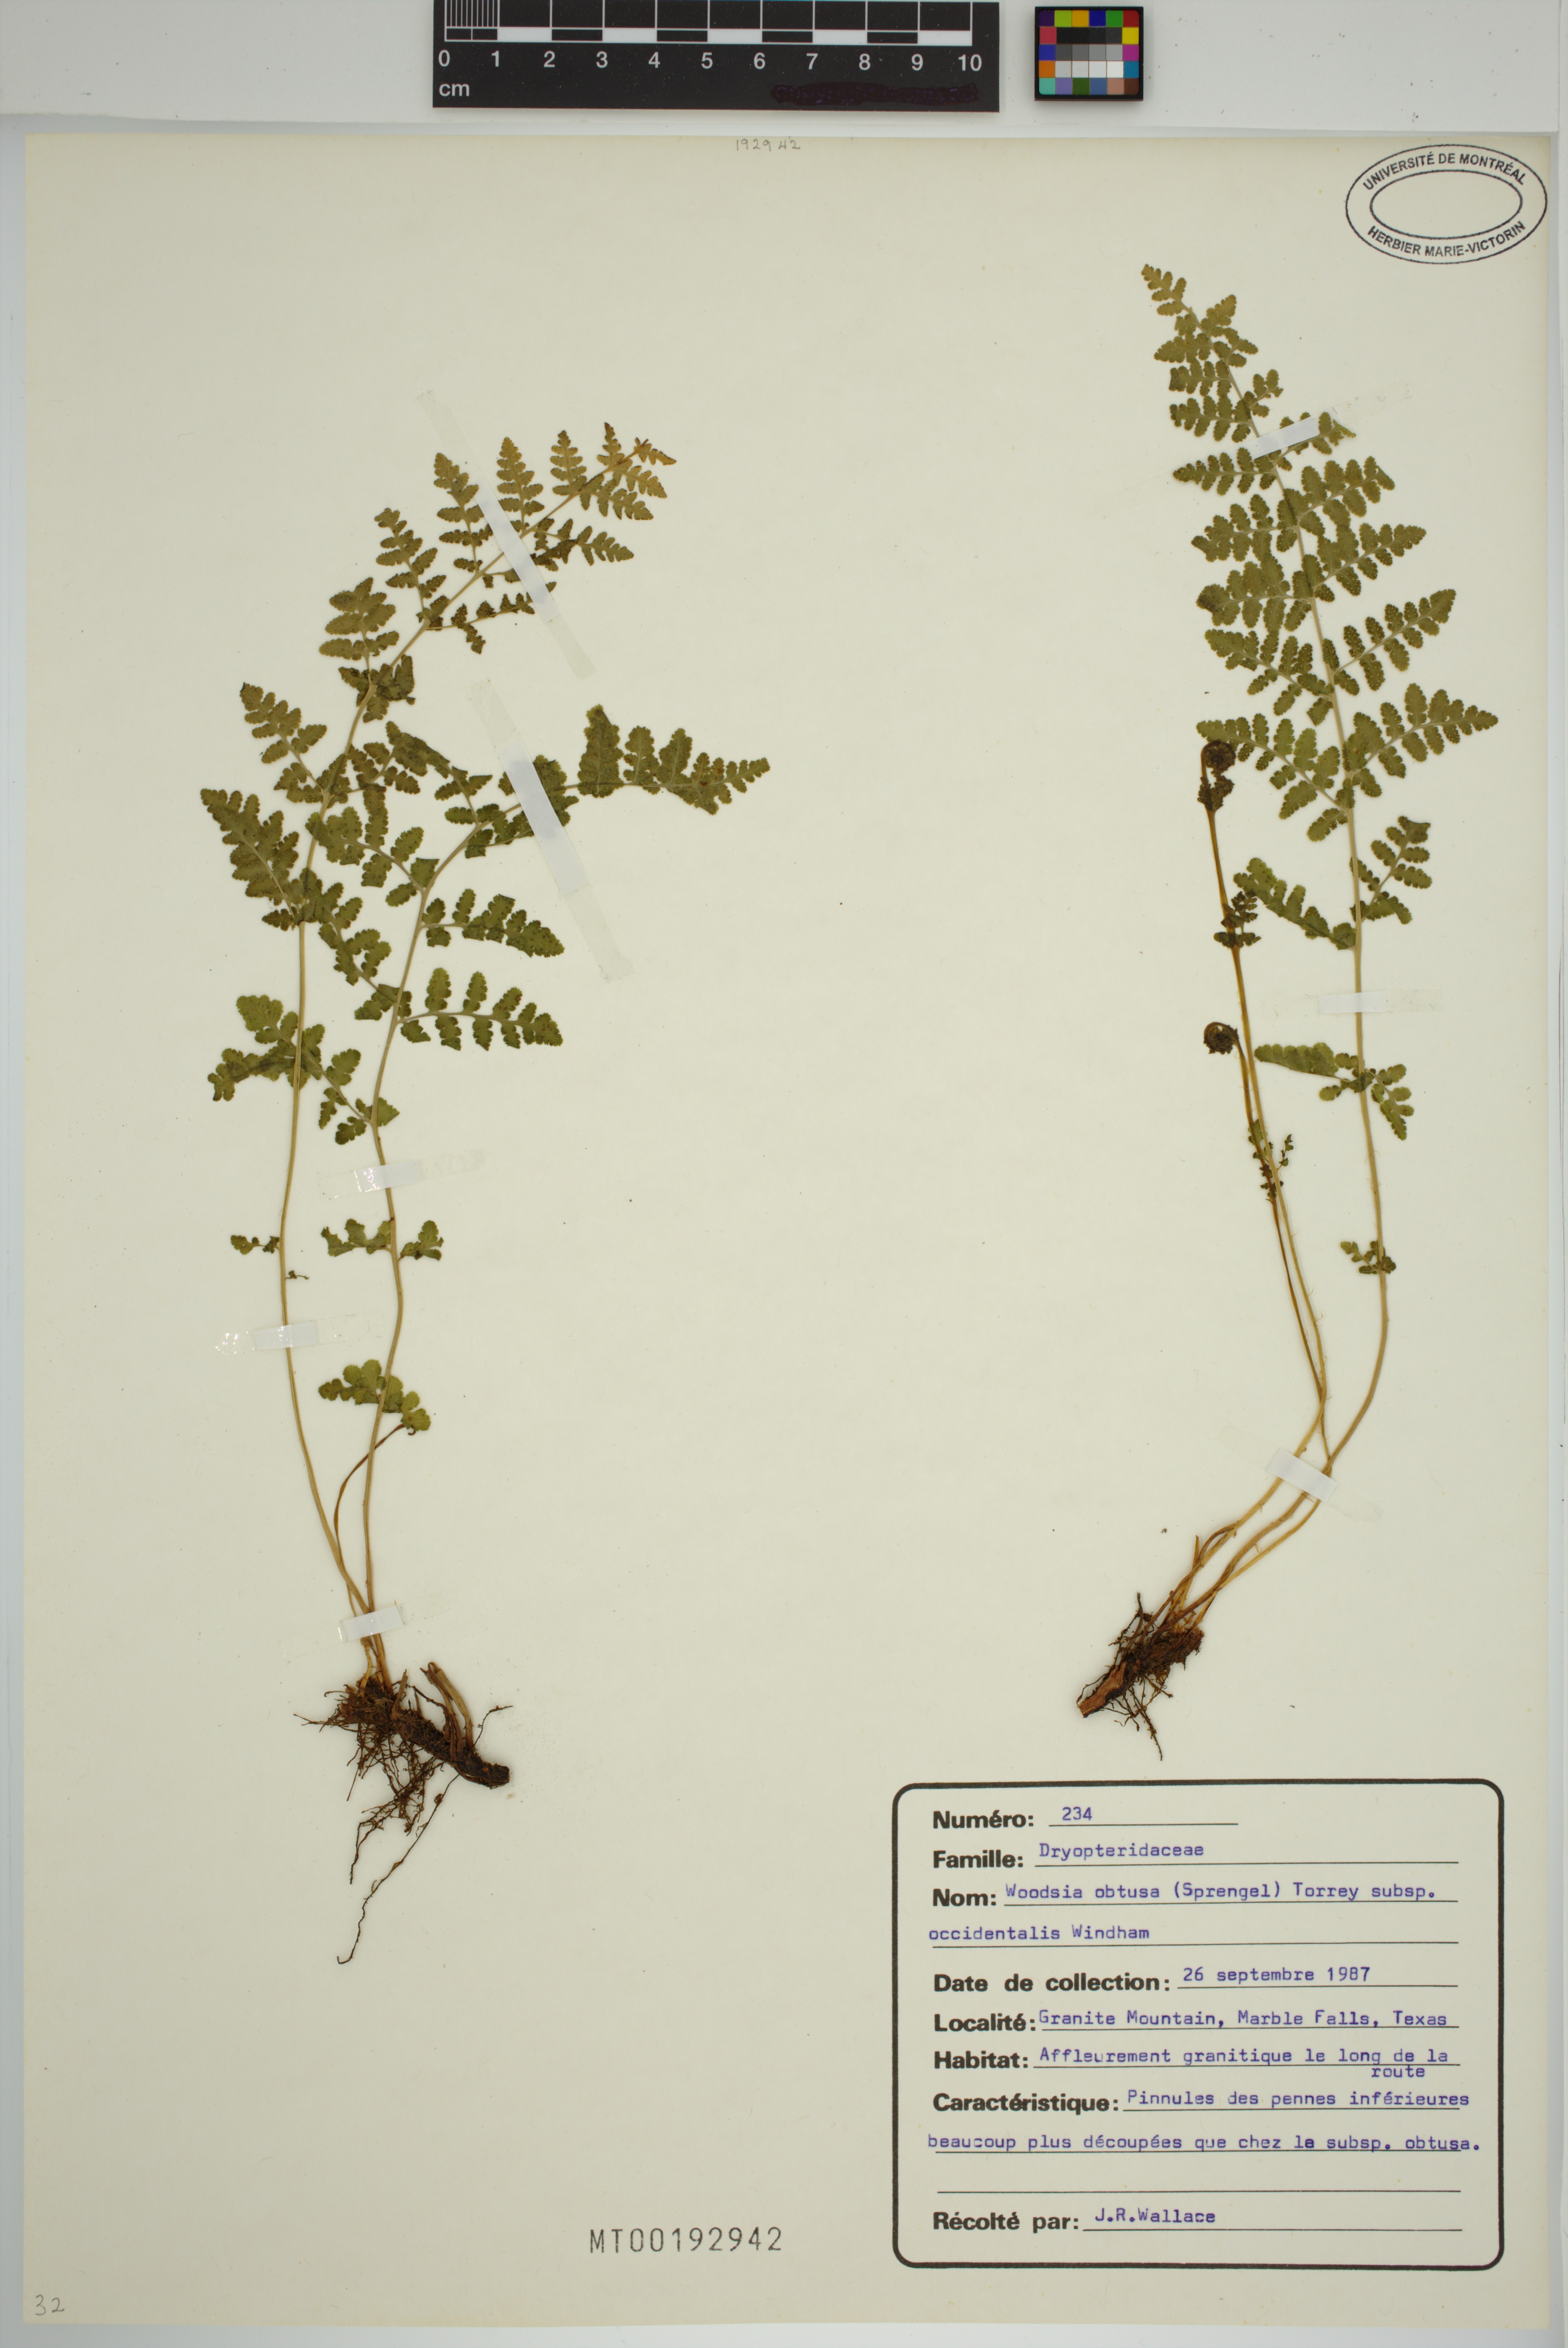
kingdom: Plantae
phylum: Tracheophyta
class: Polypodiopsida
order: Polypodiales
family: Woodsiaceae
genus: Physematium
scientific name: Physematium obtusum
